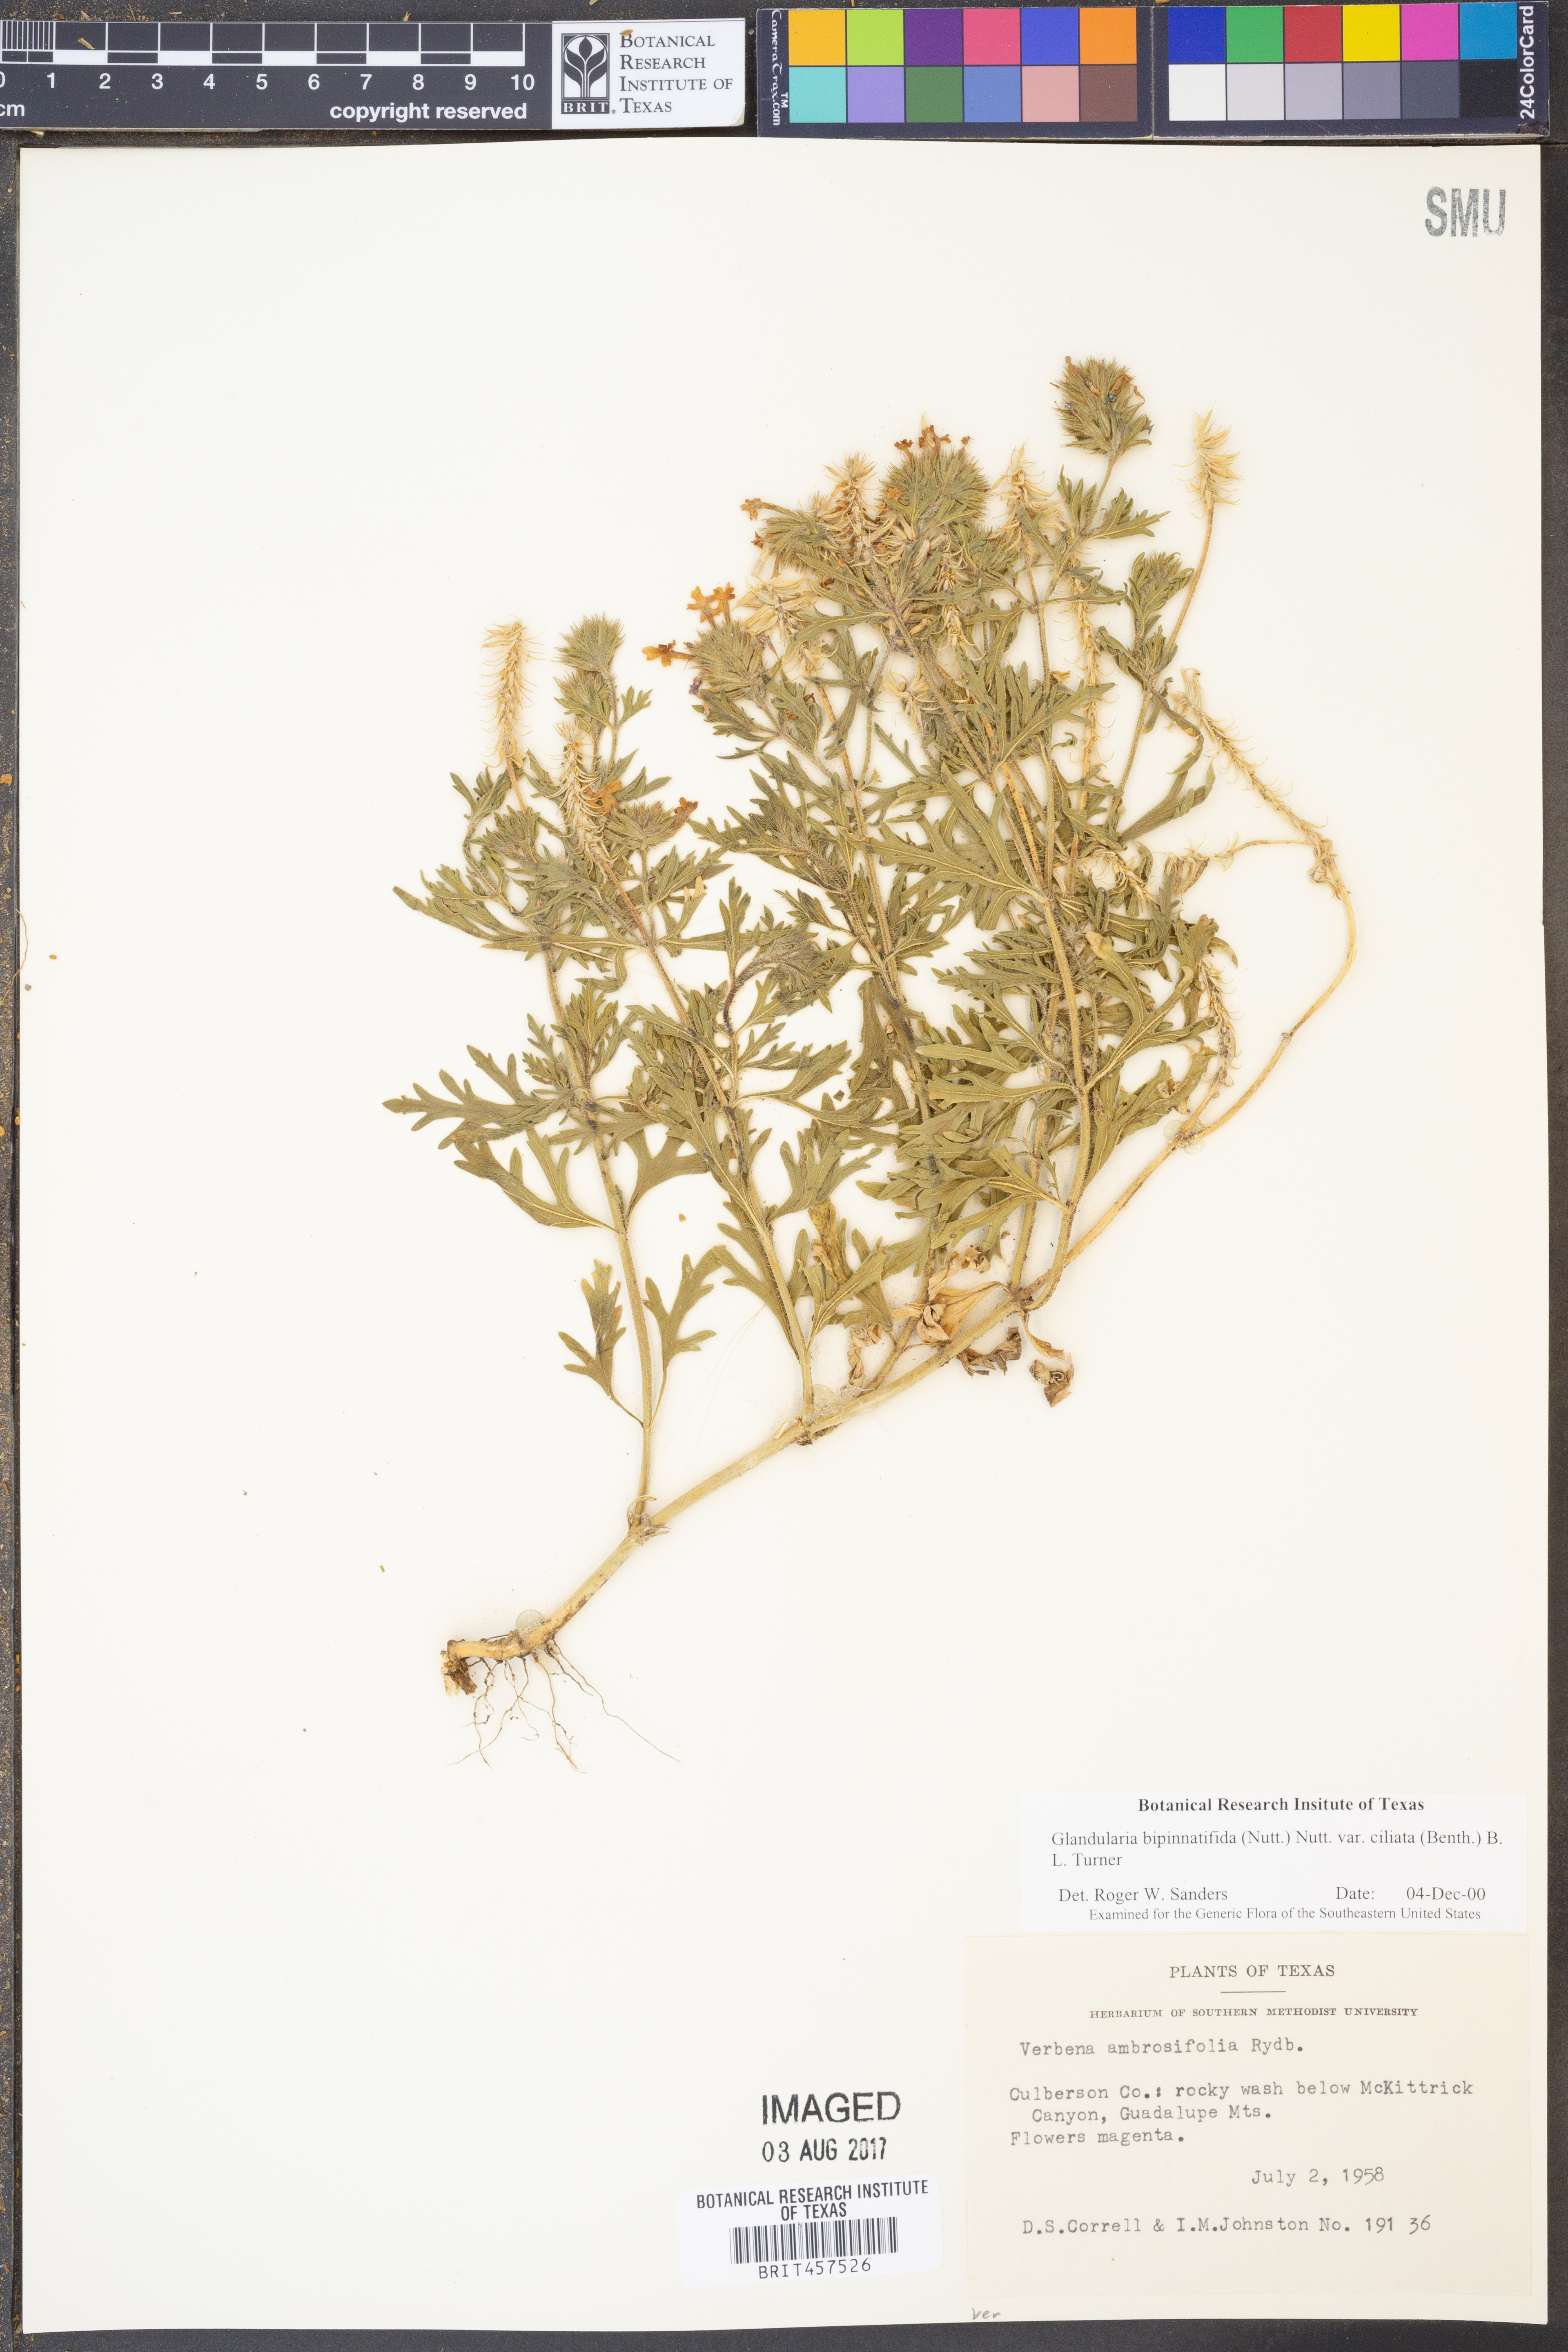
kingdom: Plantae
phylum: Tracheophyta
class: Magnoliopsida
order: Lamiales
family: Verbenaceae
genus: Verbena
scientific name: Verbena bipinnatifida
